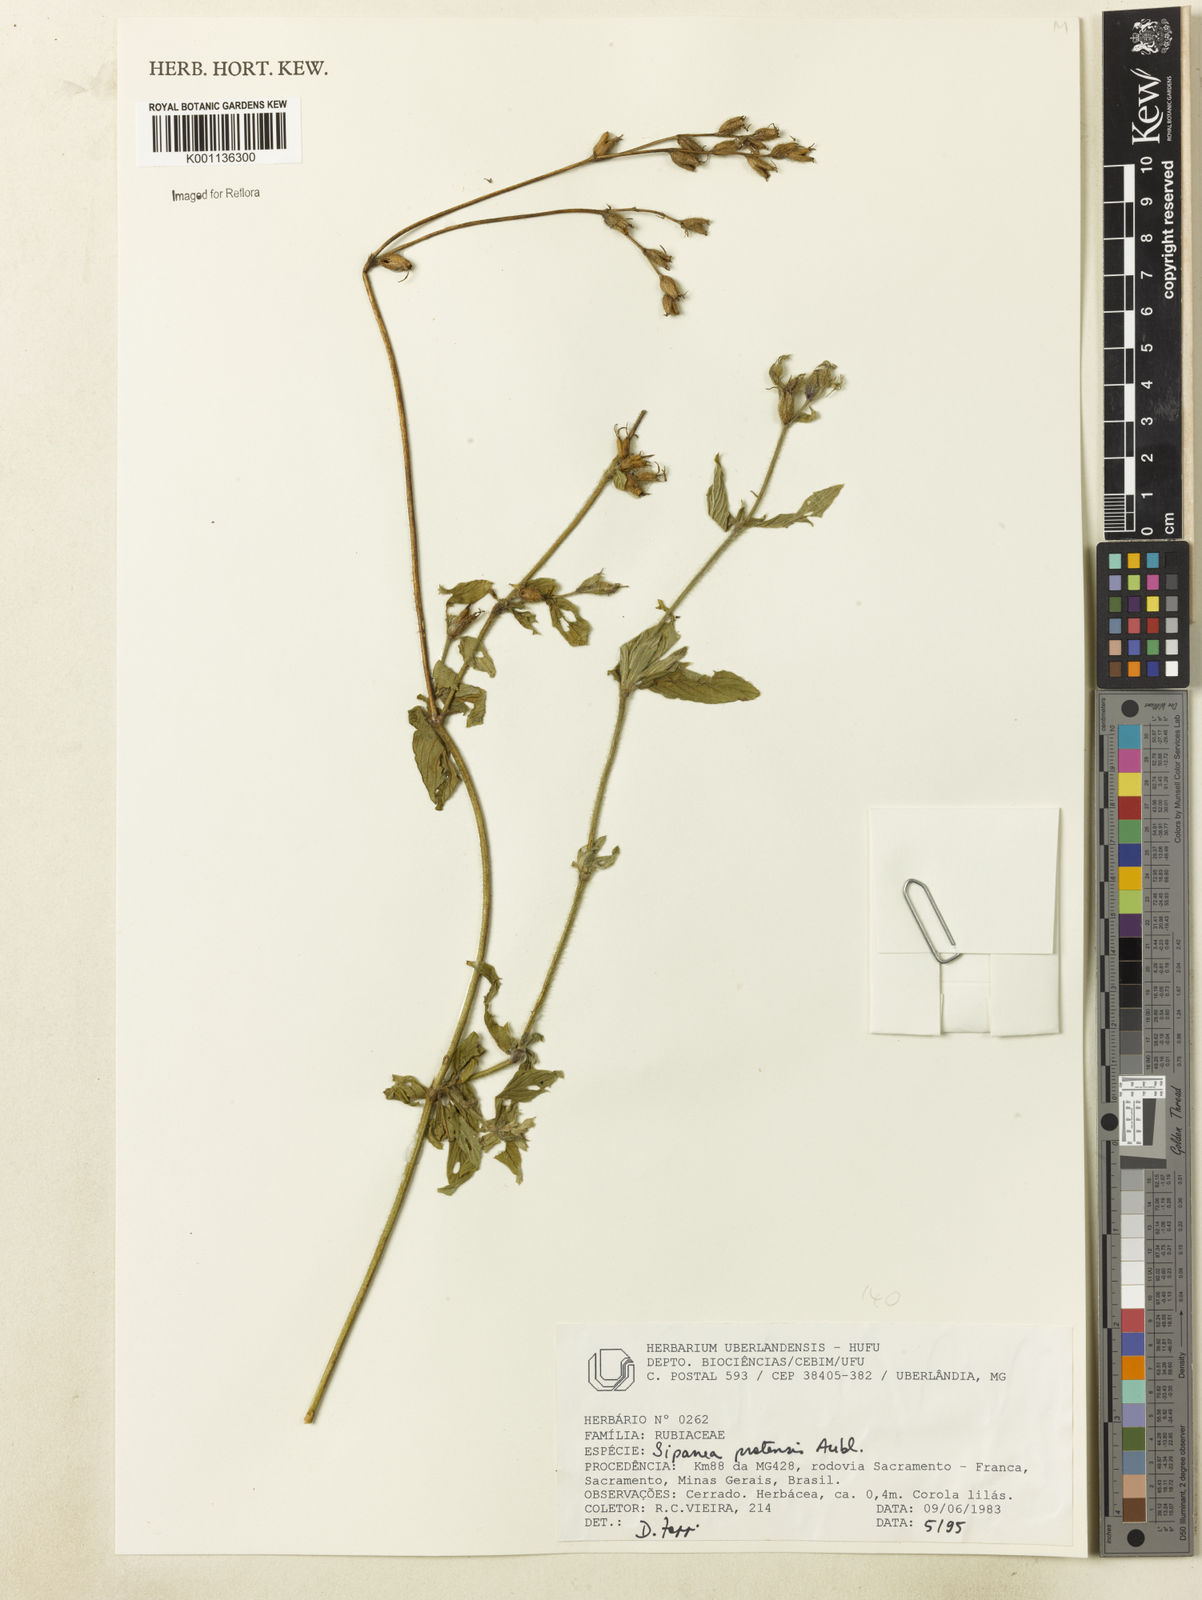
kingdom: Plantae
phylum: Tracheophyta
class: Magnoliopsida
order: Gentianales
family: Rubiaceae
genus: Sipanea
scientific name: Sipanea pratensis
